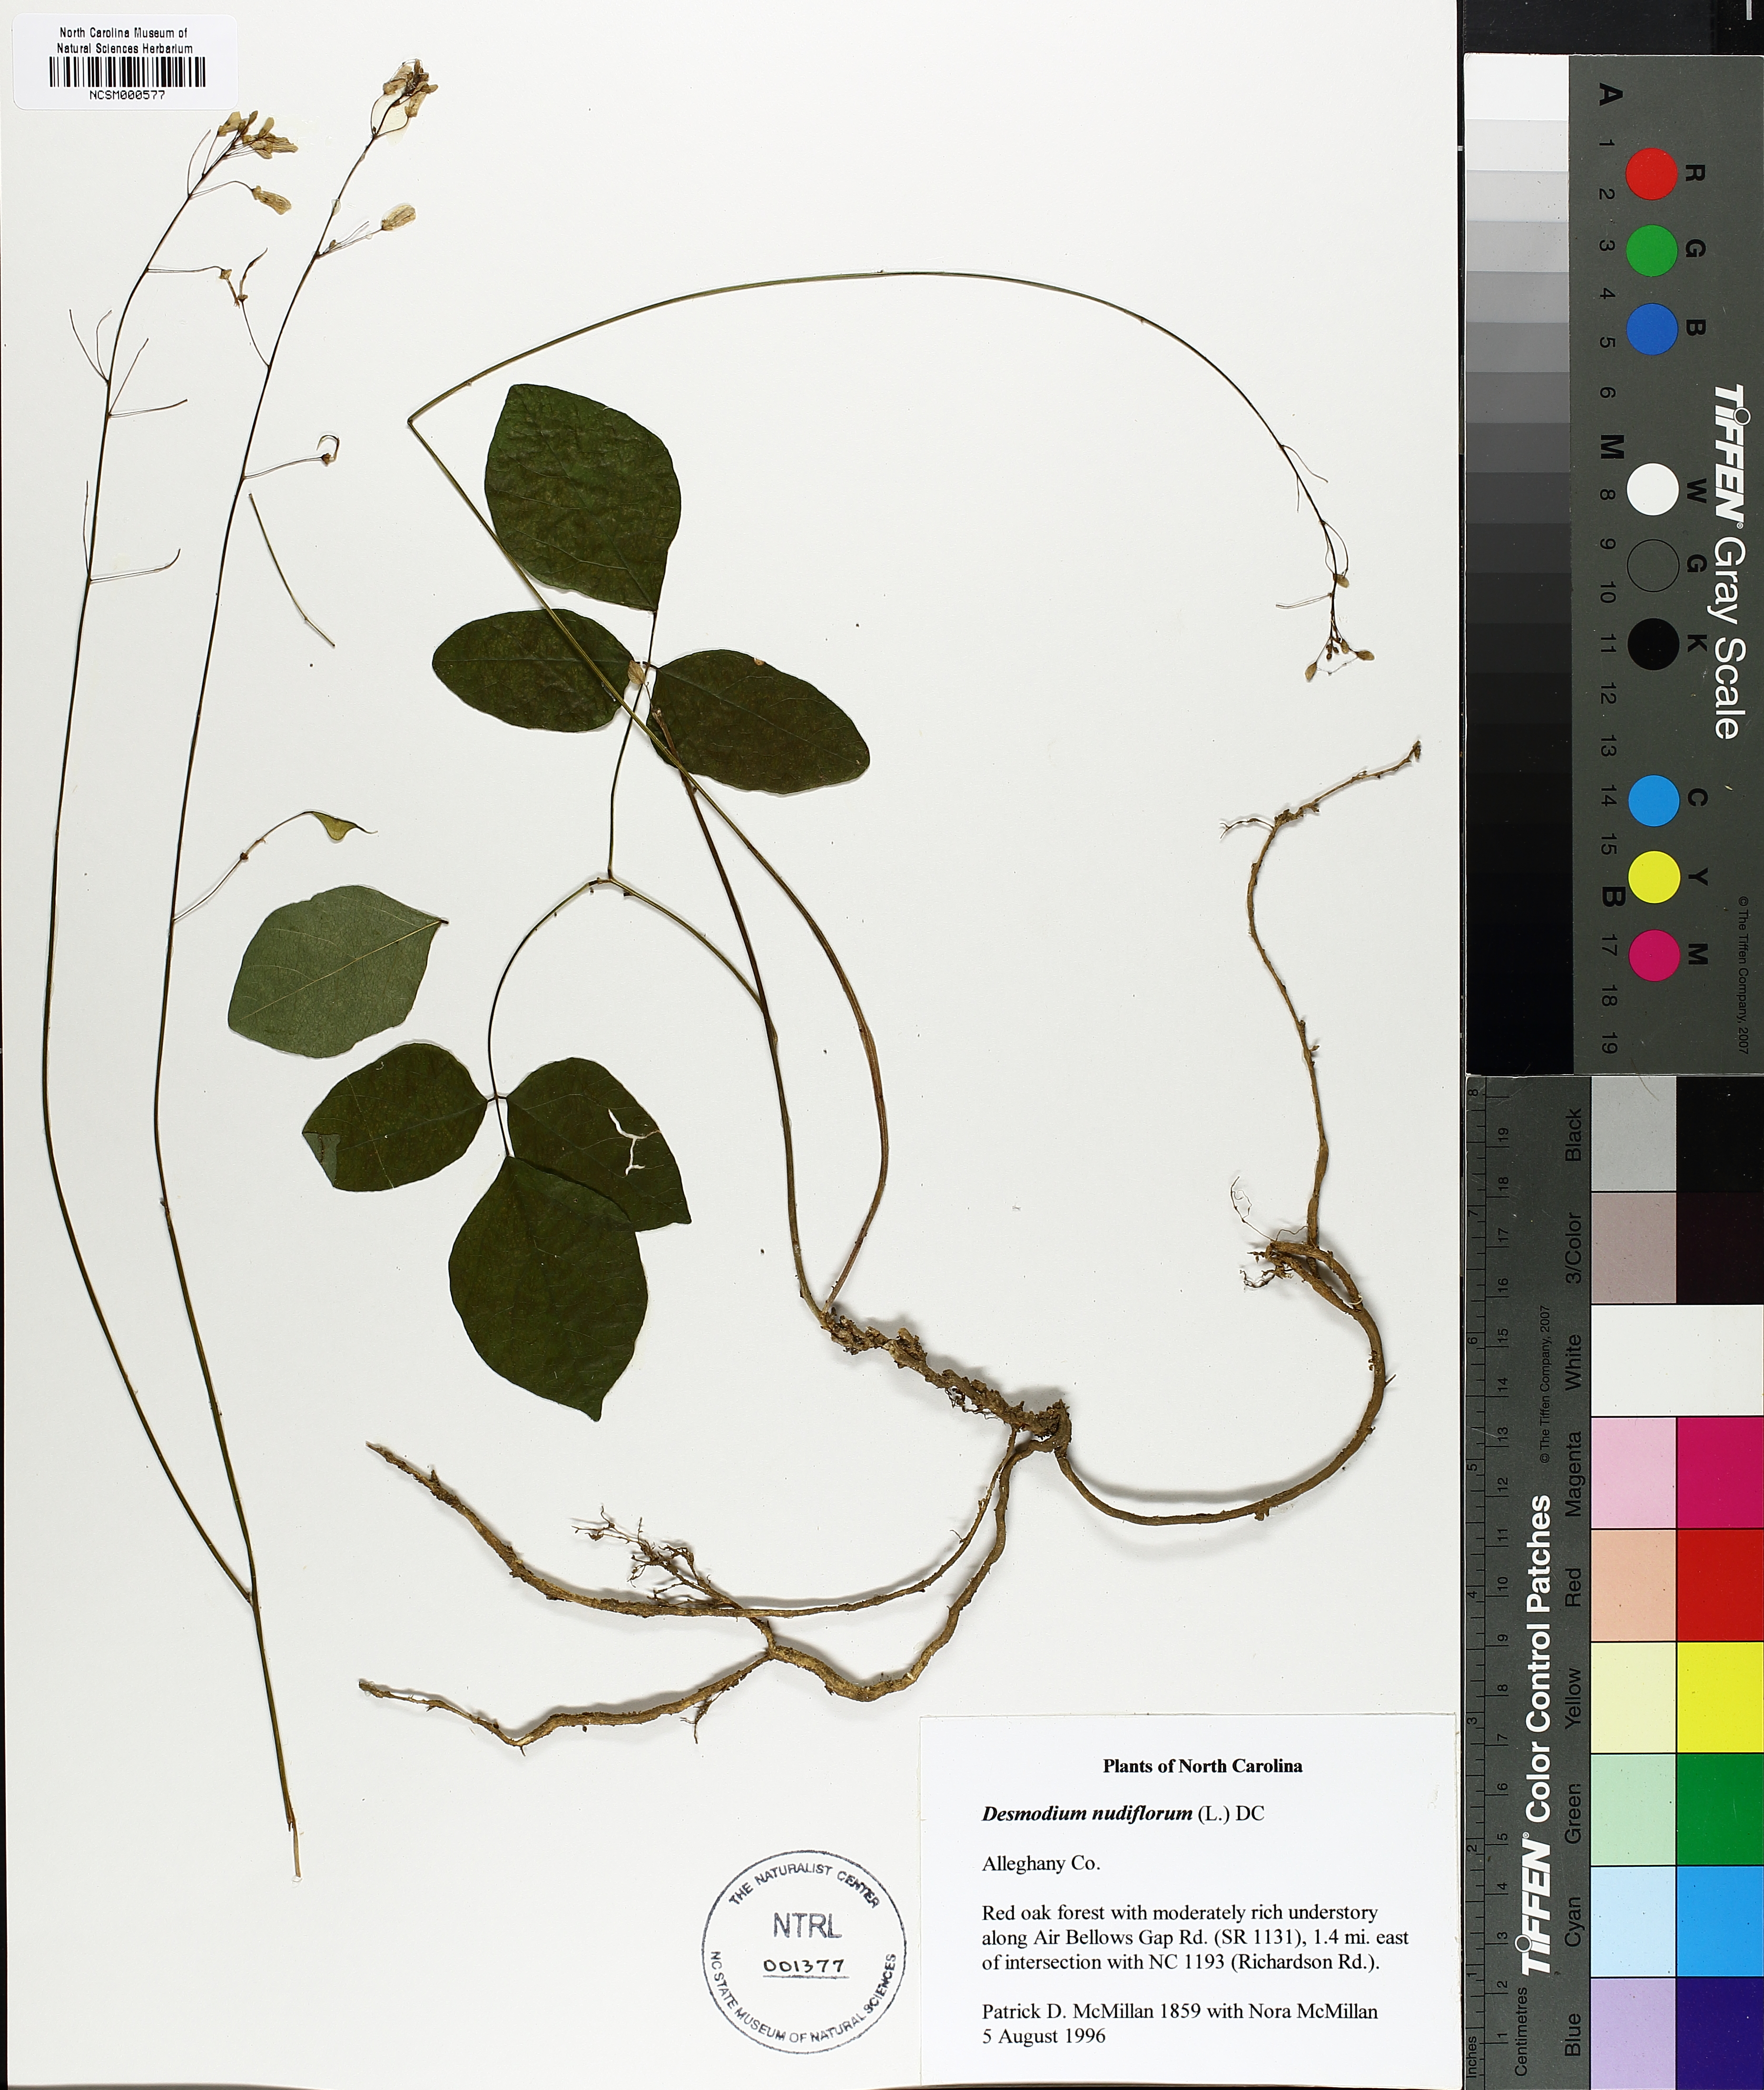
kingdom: Plantae
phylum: Tracheophyta
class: Magnoliopsida
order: Fabales
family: Fabaceae
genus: Hylodesmum
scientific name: Hylodesmum nudiflorum
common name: Bare-stemmed tick-trefoil
